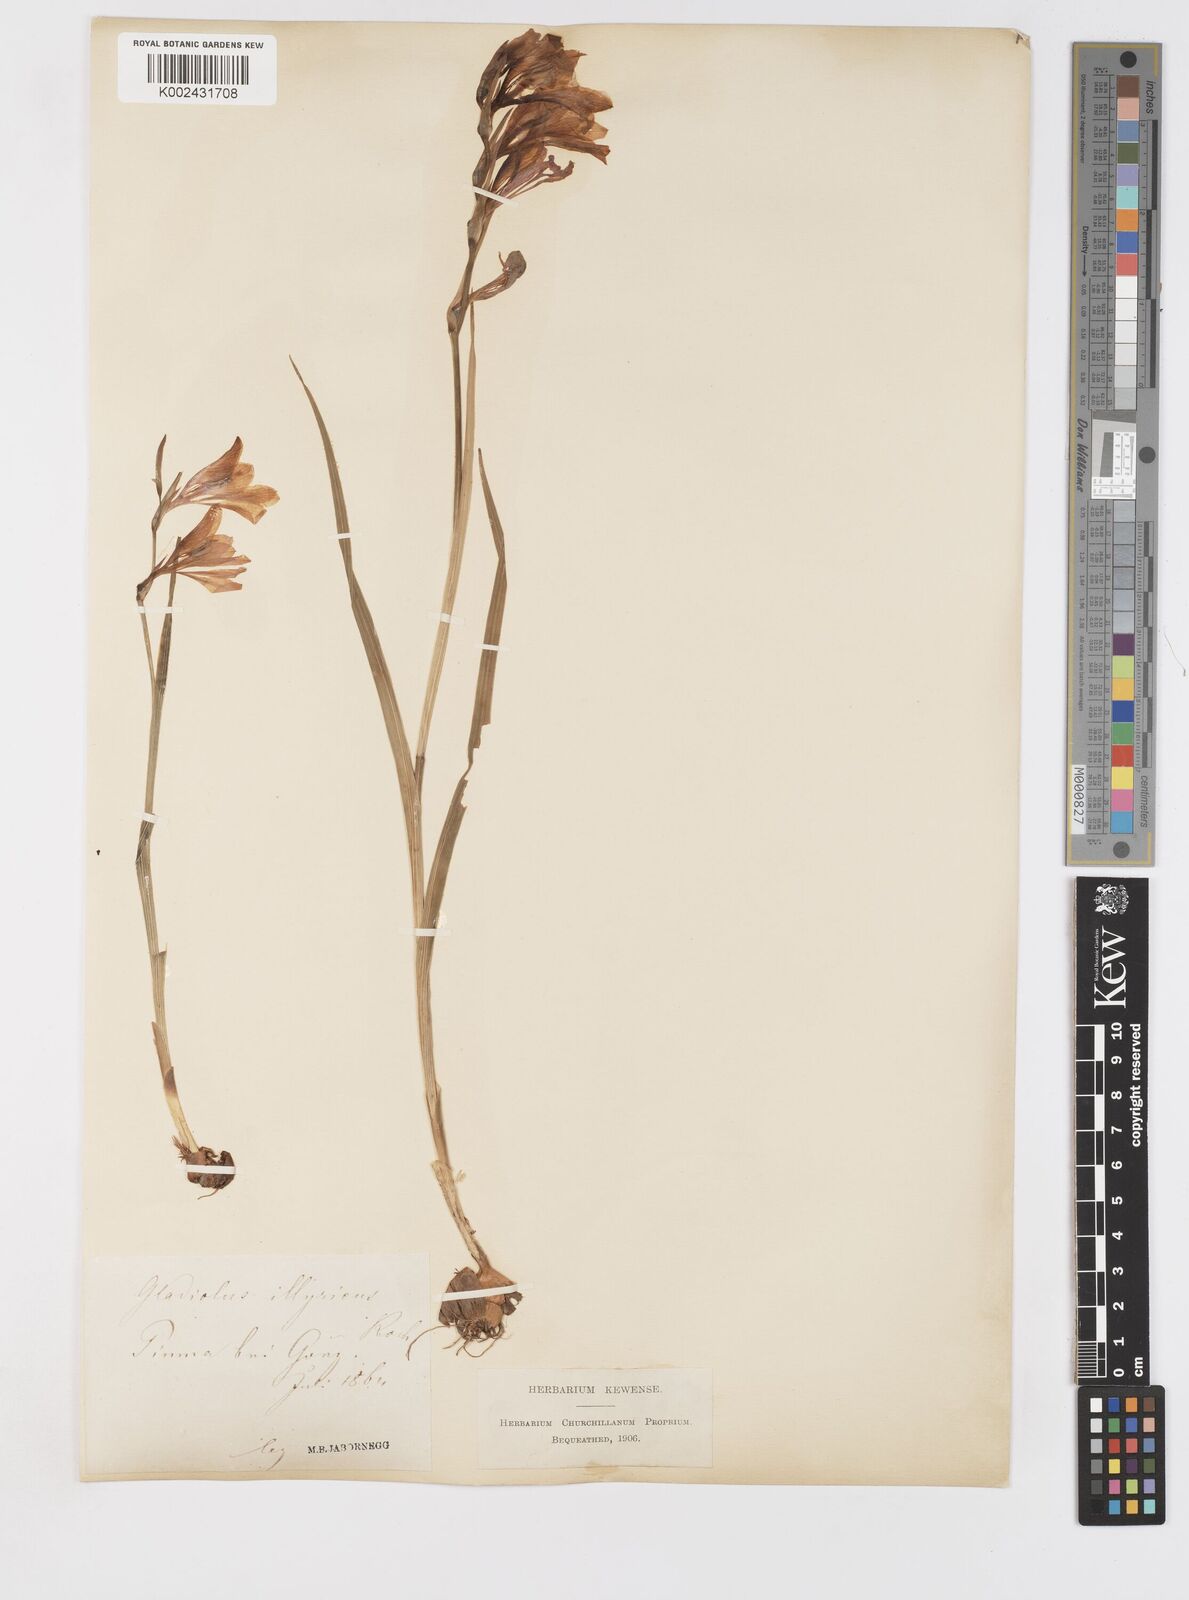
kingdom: Plantae
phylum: Tracheophyta
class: Liliopsida
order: Asparagales
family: Iridaceae
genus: Gladiolus
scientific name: Gladiolus illyricus
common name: Wild gladiolus
